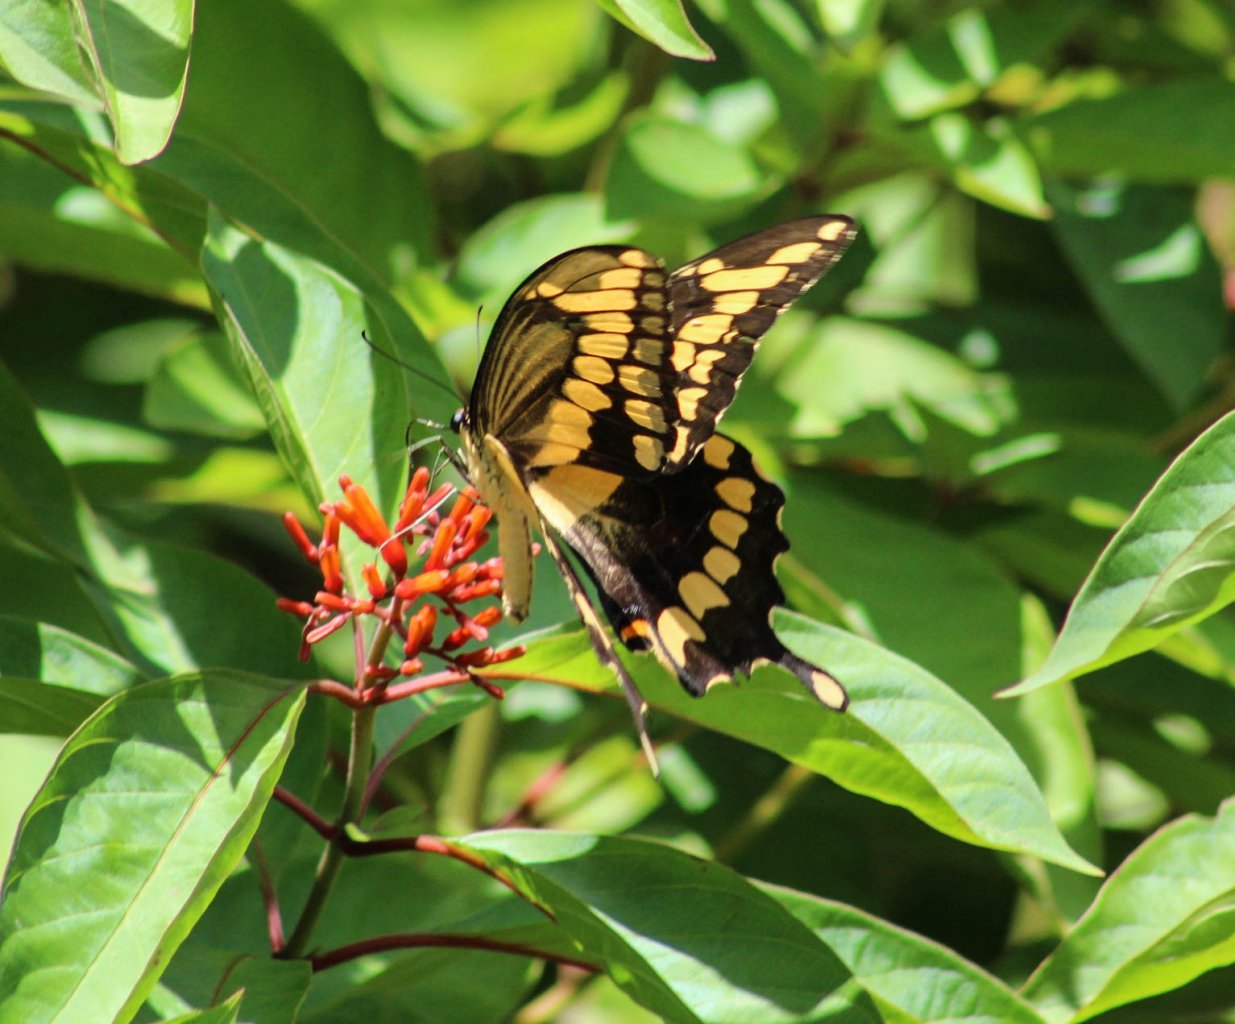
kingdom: Animalia
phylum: Arthropoda
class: Insecta
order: Lepidoptera
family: Papilionidae
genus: Papilio
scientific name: Papilio cresphontes
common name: Eastern Giant Swallowtail
